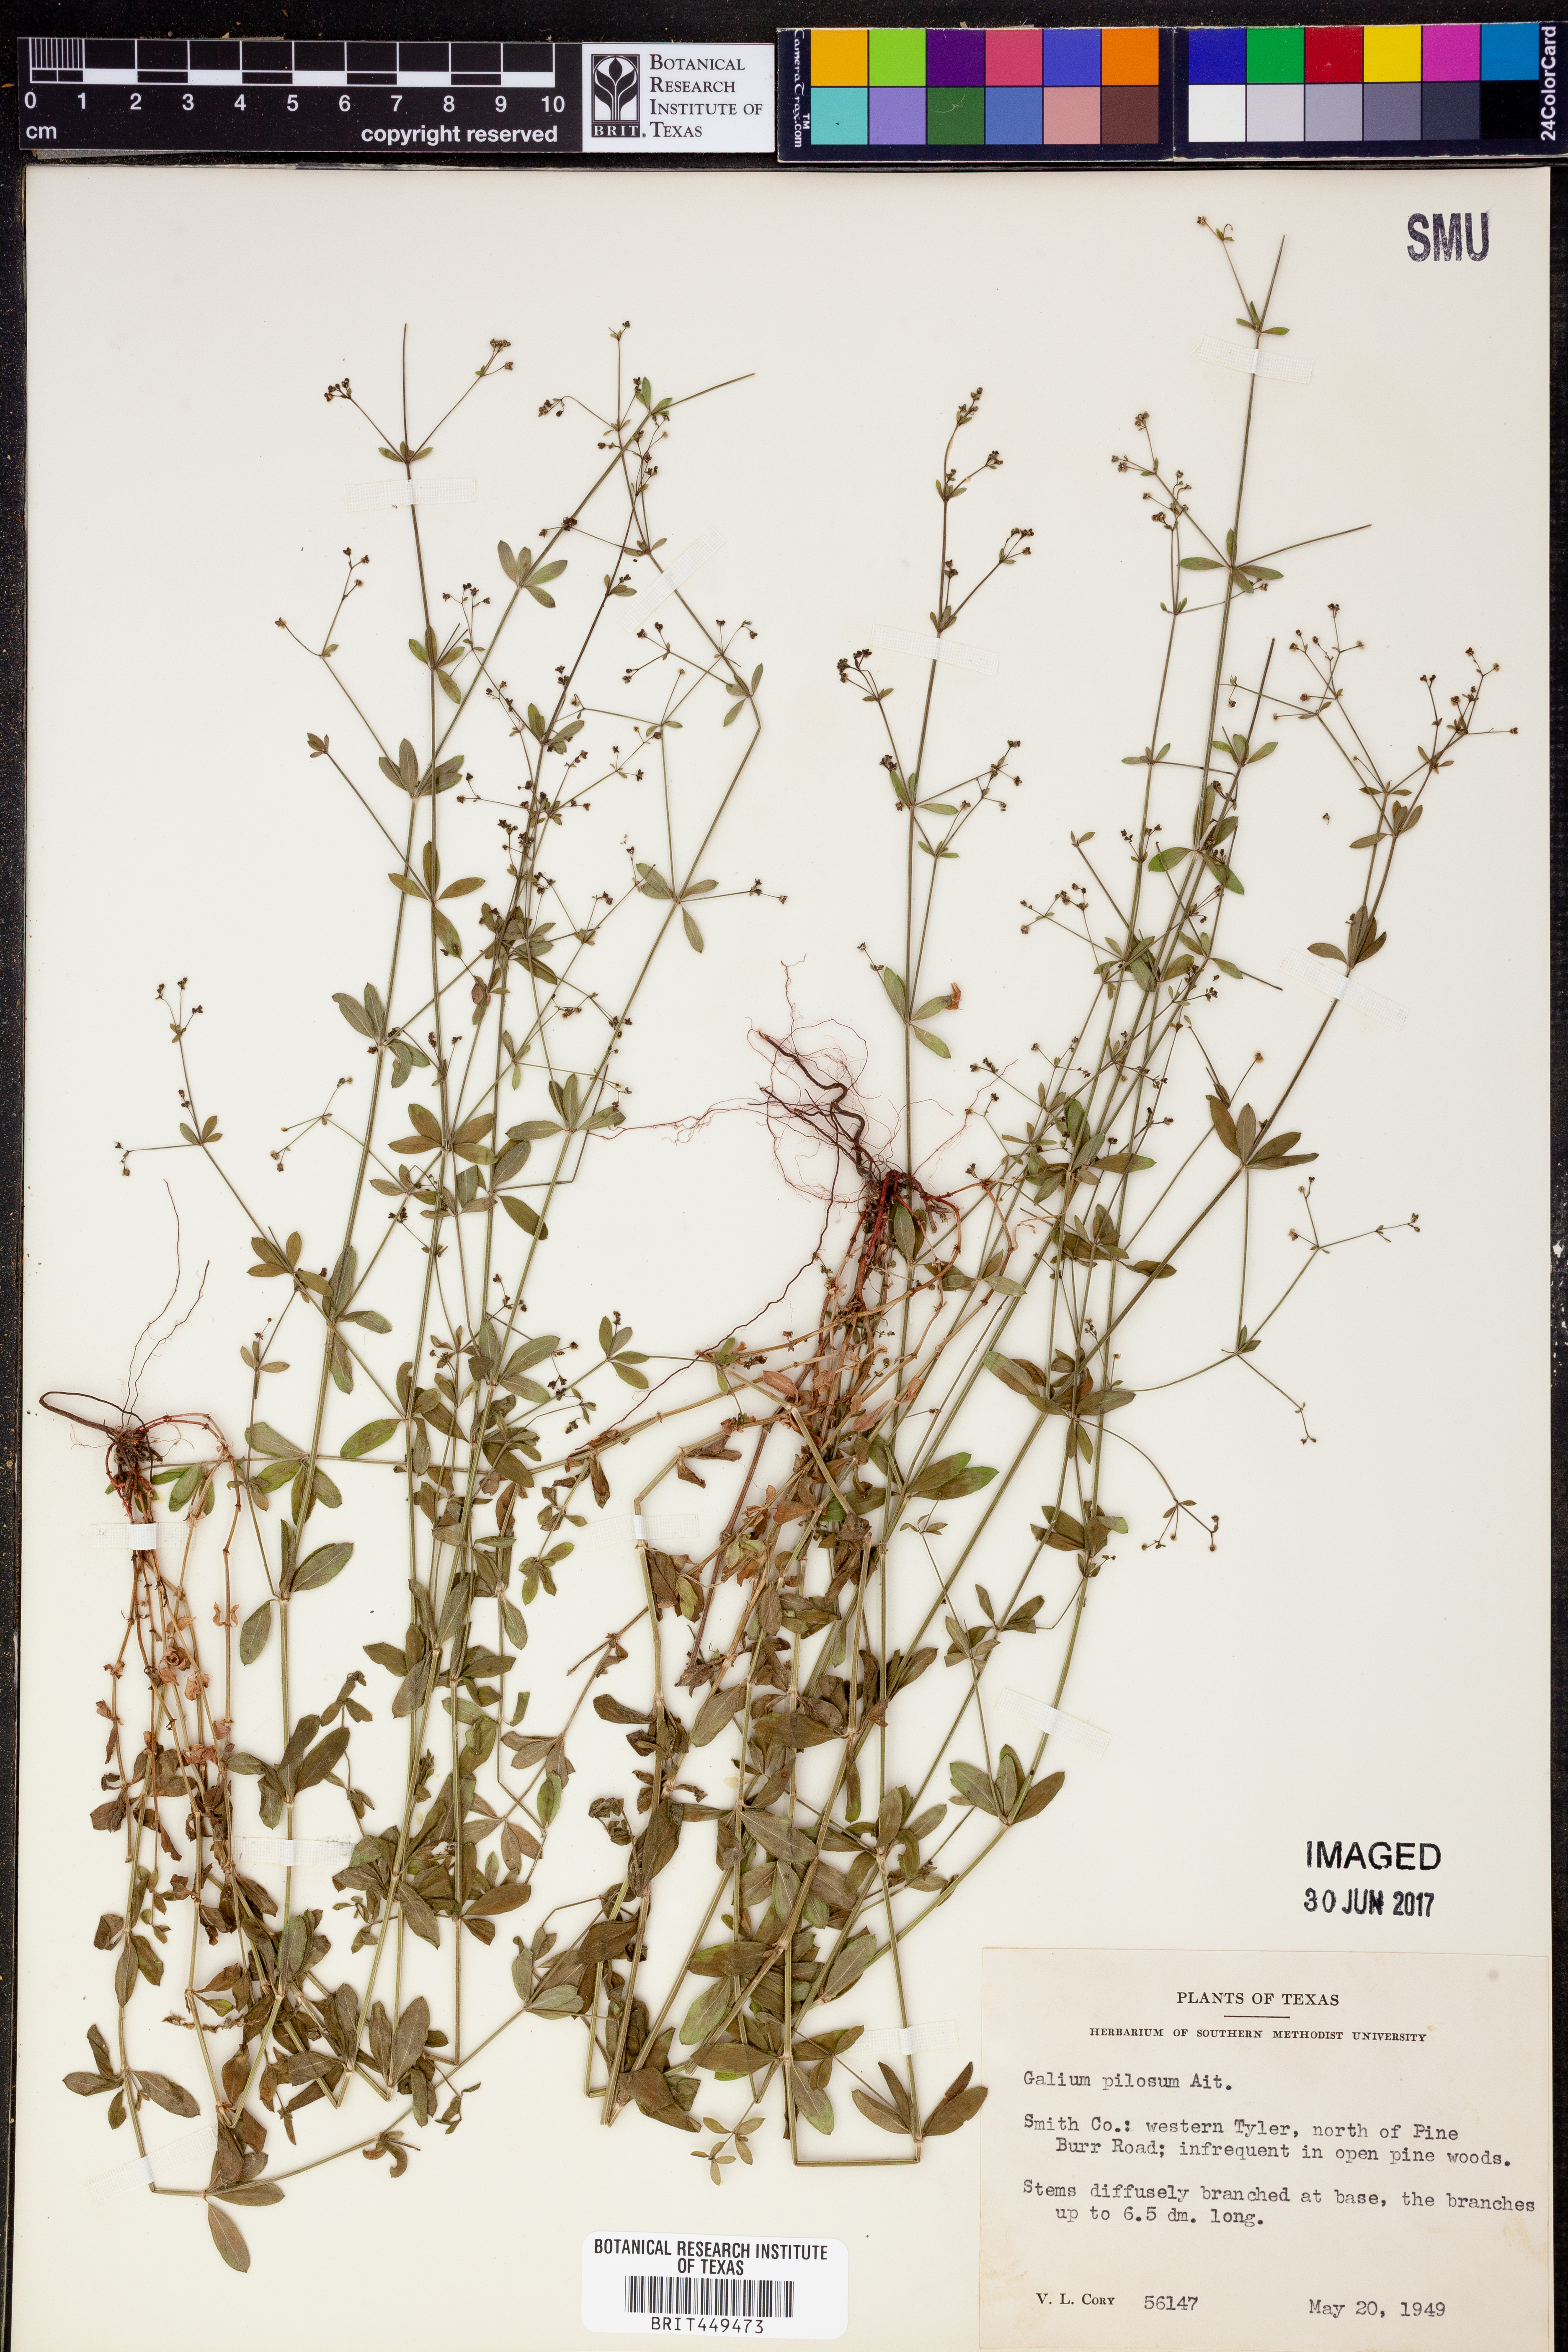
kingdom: Plantae
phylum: Tracheophyta
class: Magnoliopsida
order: Gentianales
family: Rubiaceae
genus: Galium
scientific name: Galium pilosum
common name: Hairy bedstraw
